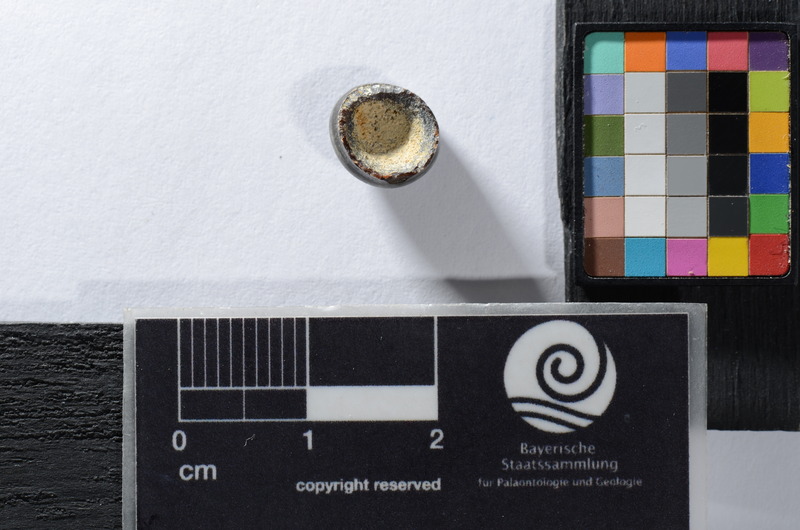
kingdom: Animalia
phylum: Chordata
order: Lepisosteiformes
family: Lepidotidae
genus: Lepidotes
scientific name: Lepidotes
